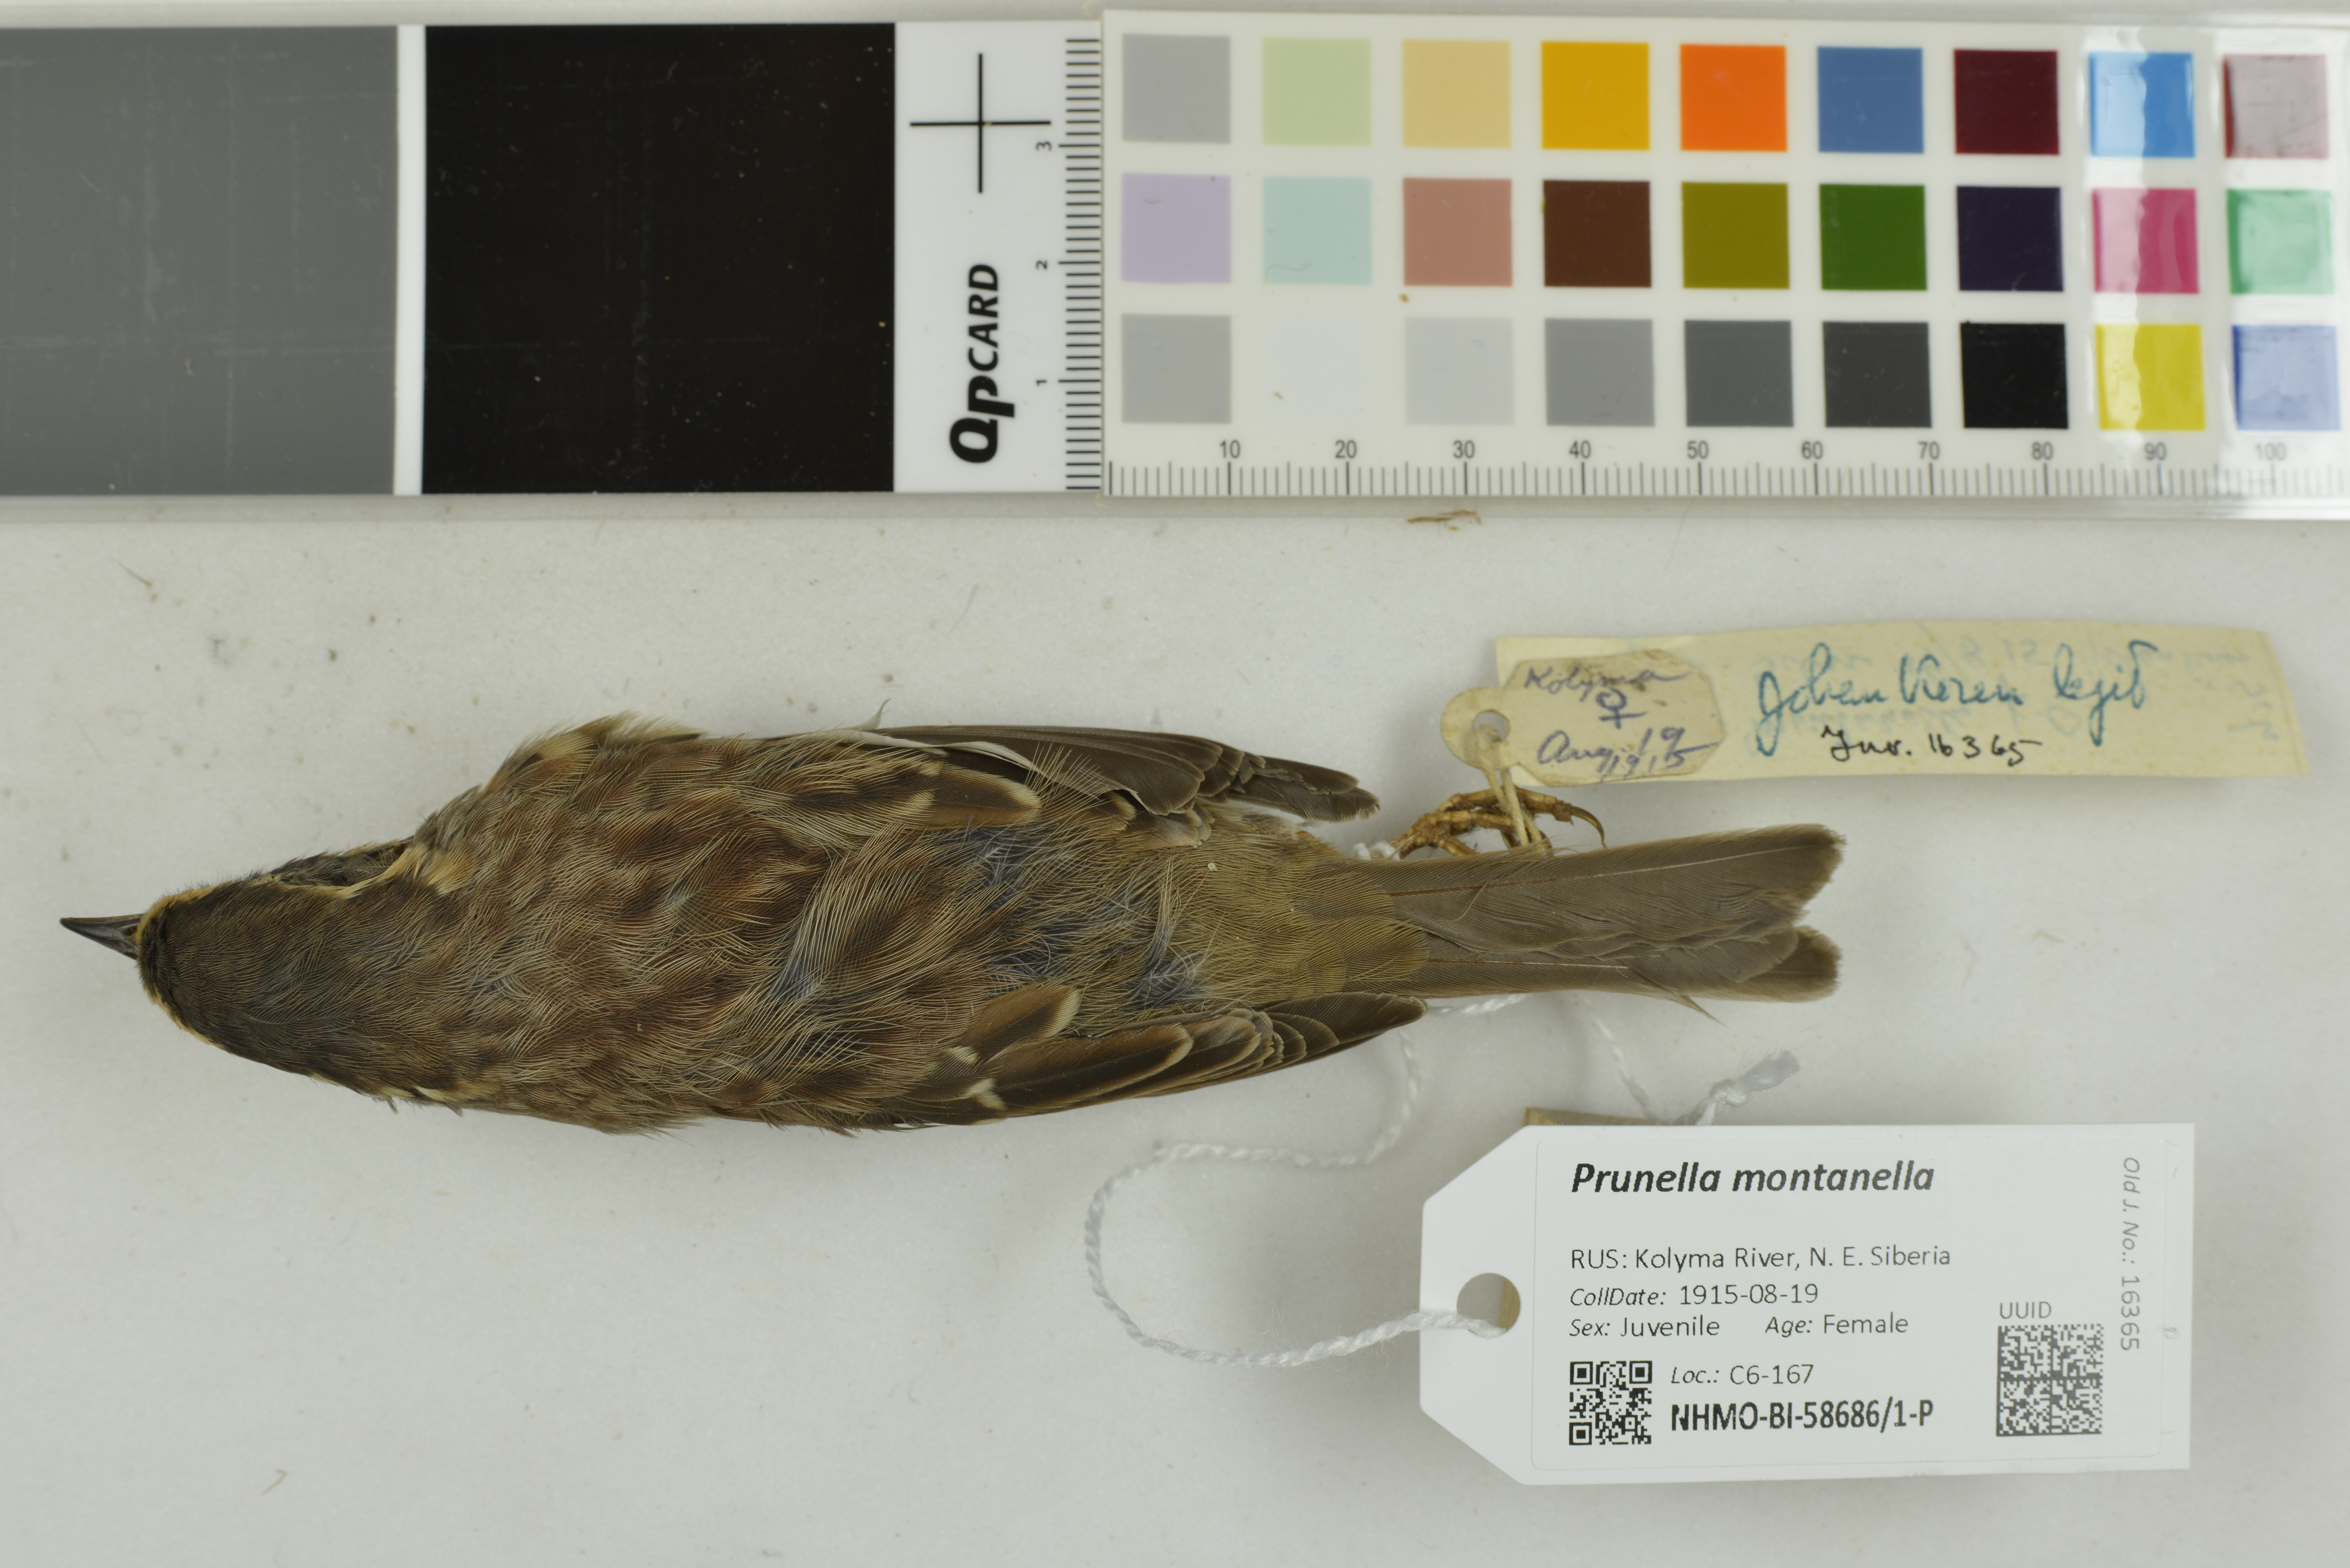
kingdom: Animalia
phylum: Chordata
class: Aves
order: Passeriformes
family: Prunellidae
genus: Prunella
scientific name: Prunella montanella
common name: Siberian accentor
